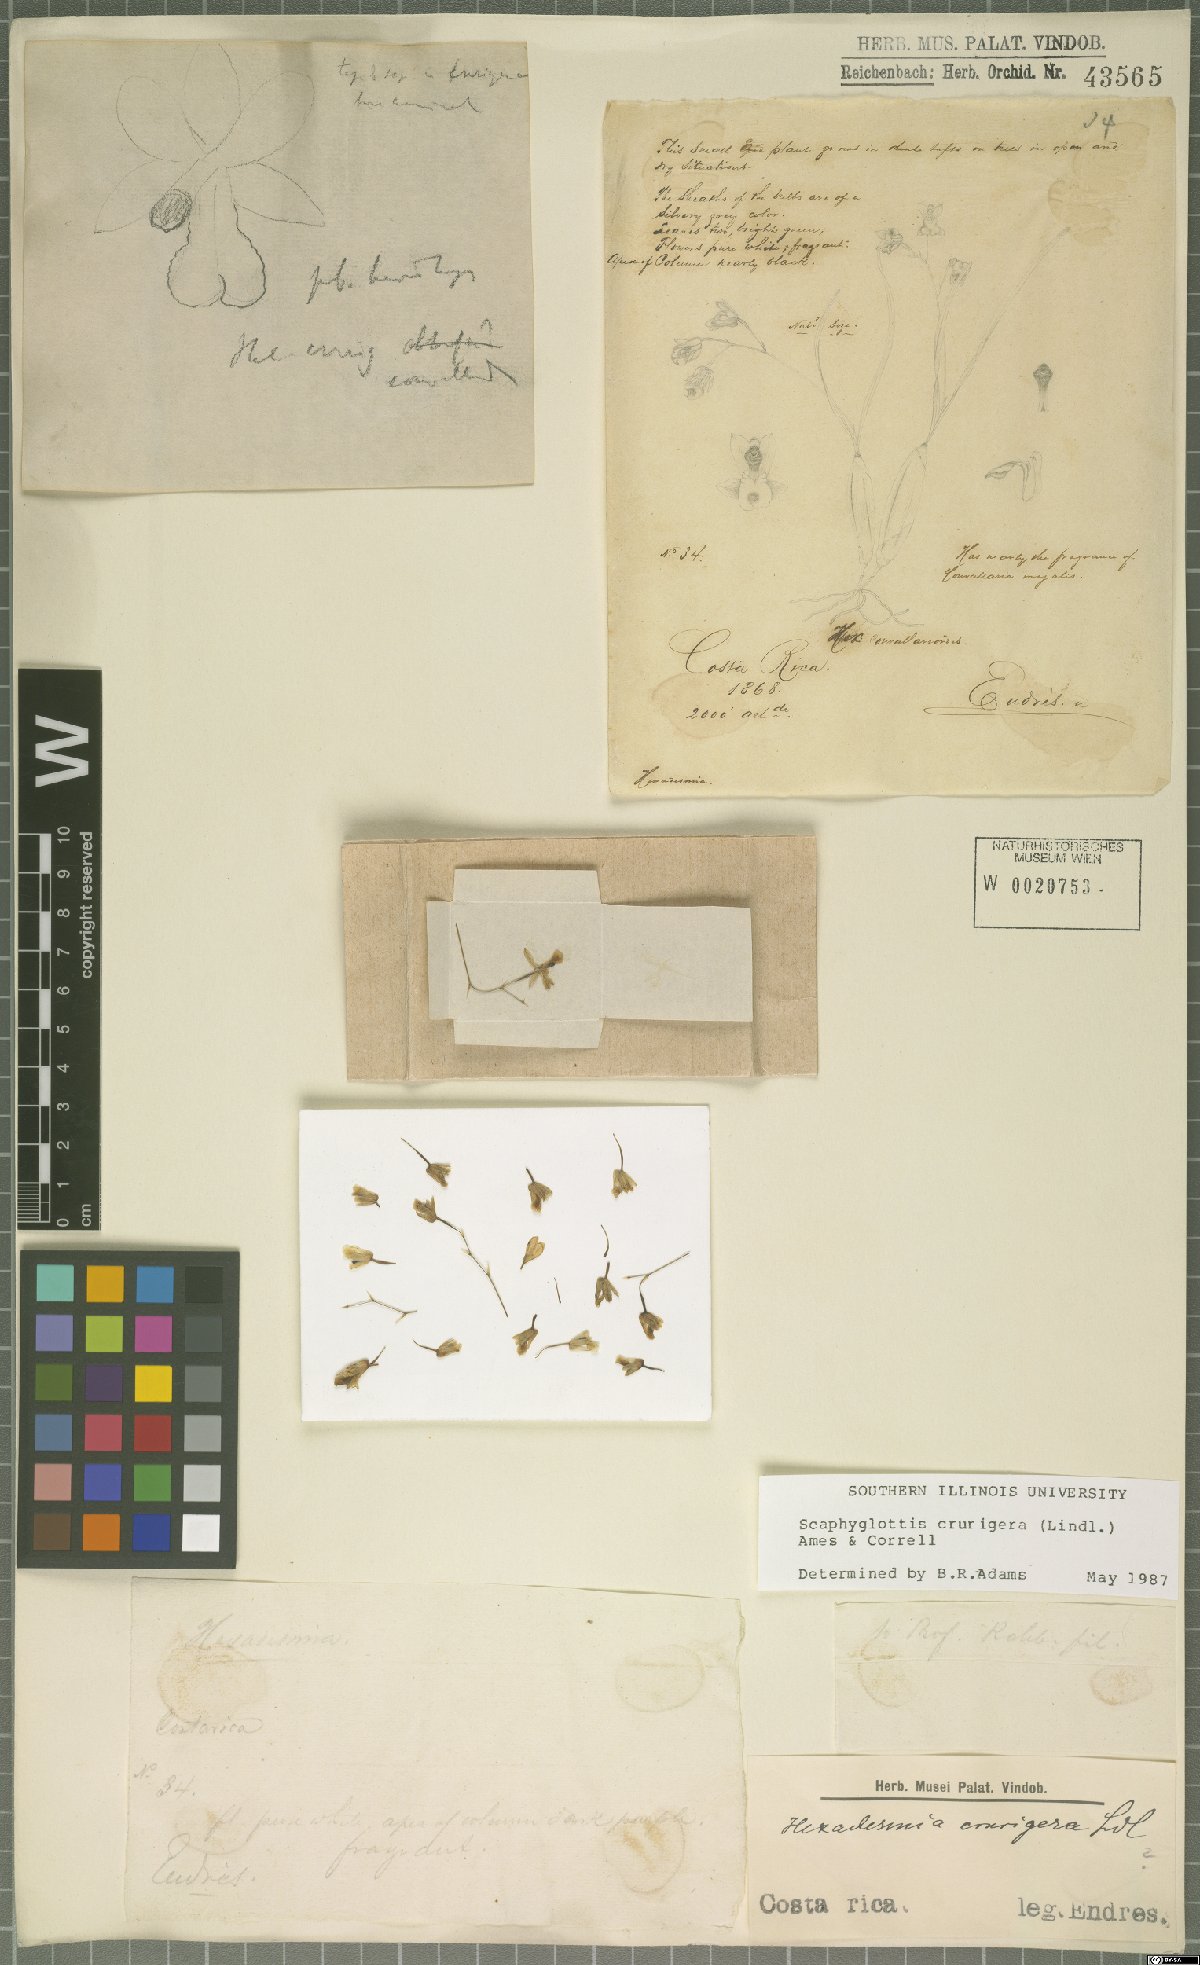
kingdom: Plantae
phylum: Tracheophyta
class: Liliopsida
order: Asparagales
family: Orchidaceae
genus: Scaphyglottis
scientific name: Scaphyglottis crurigera
